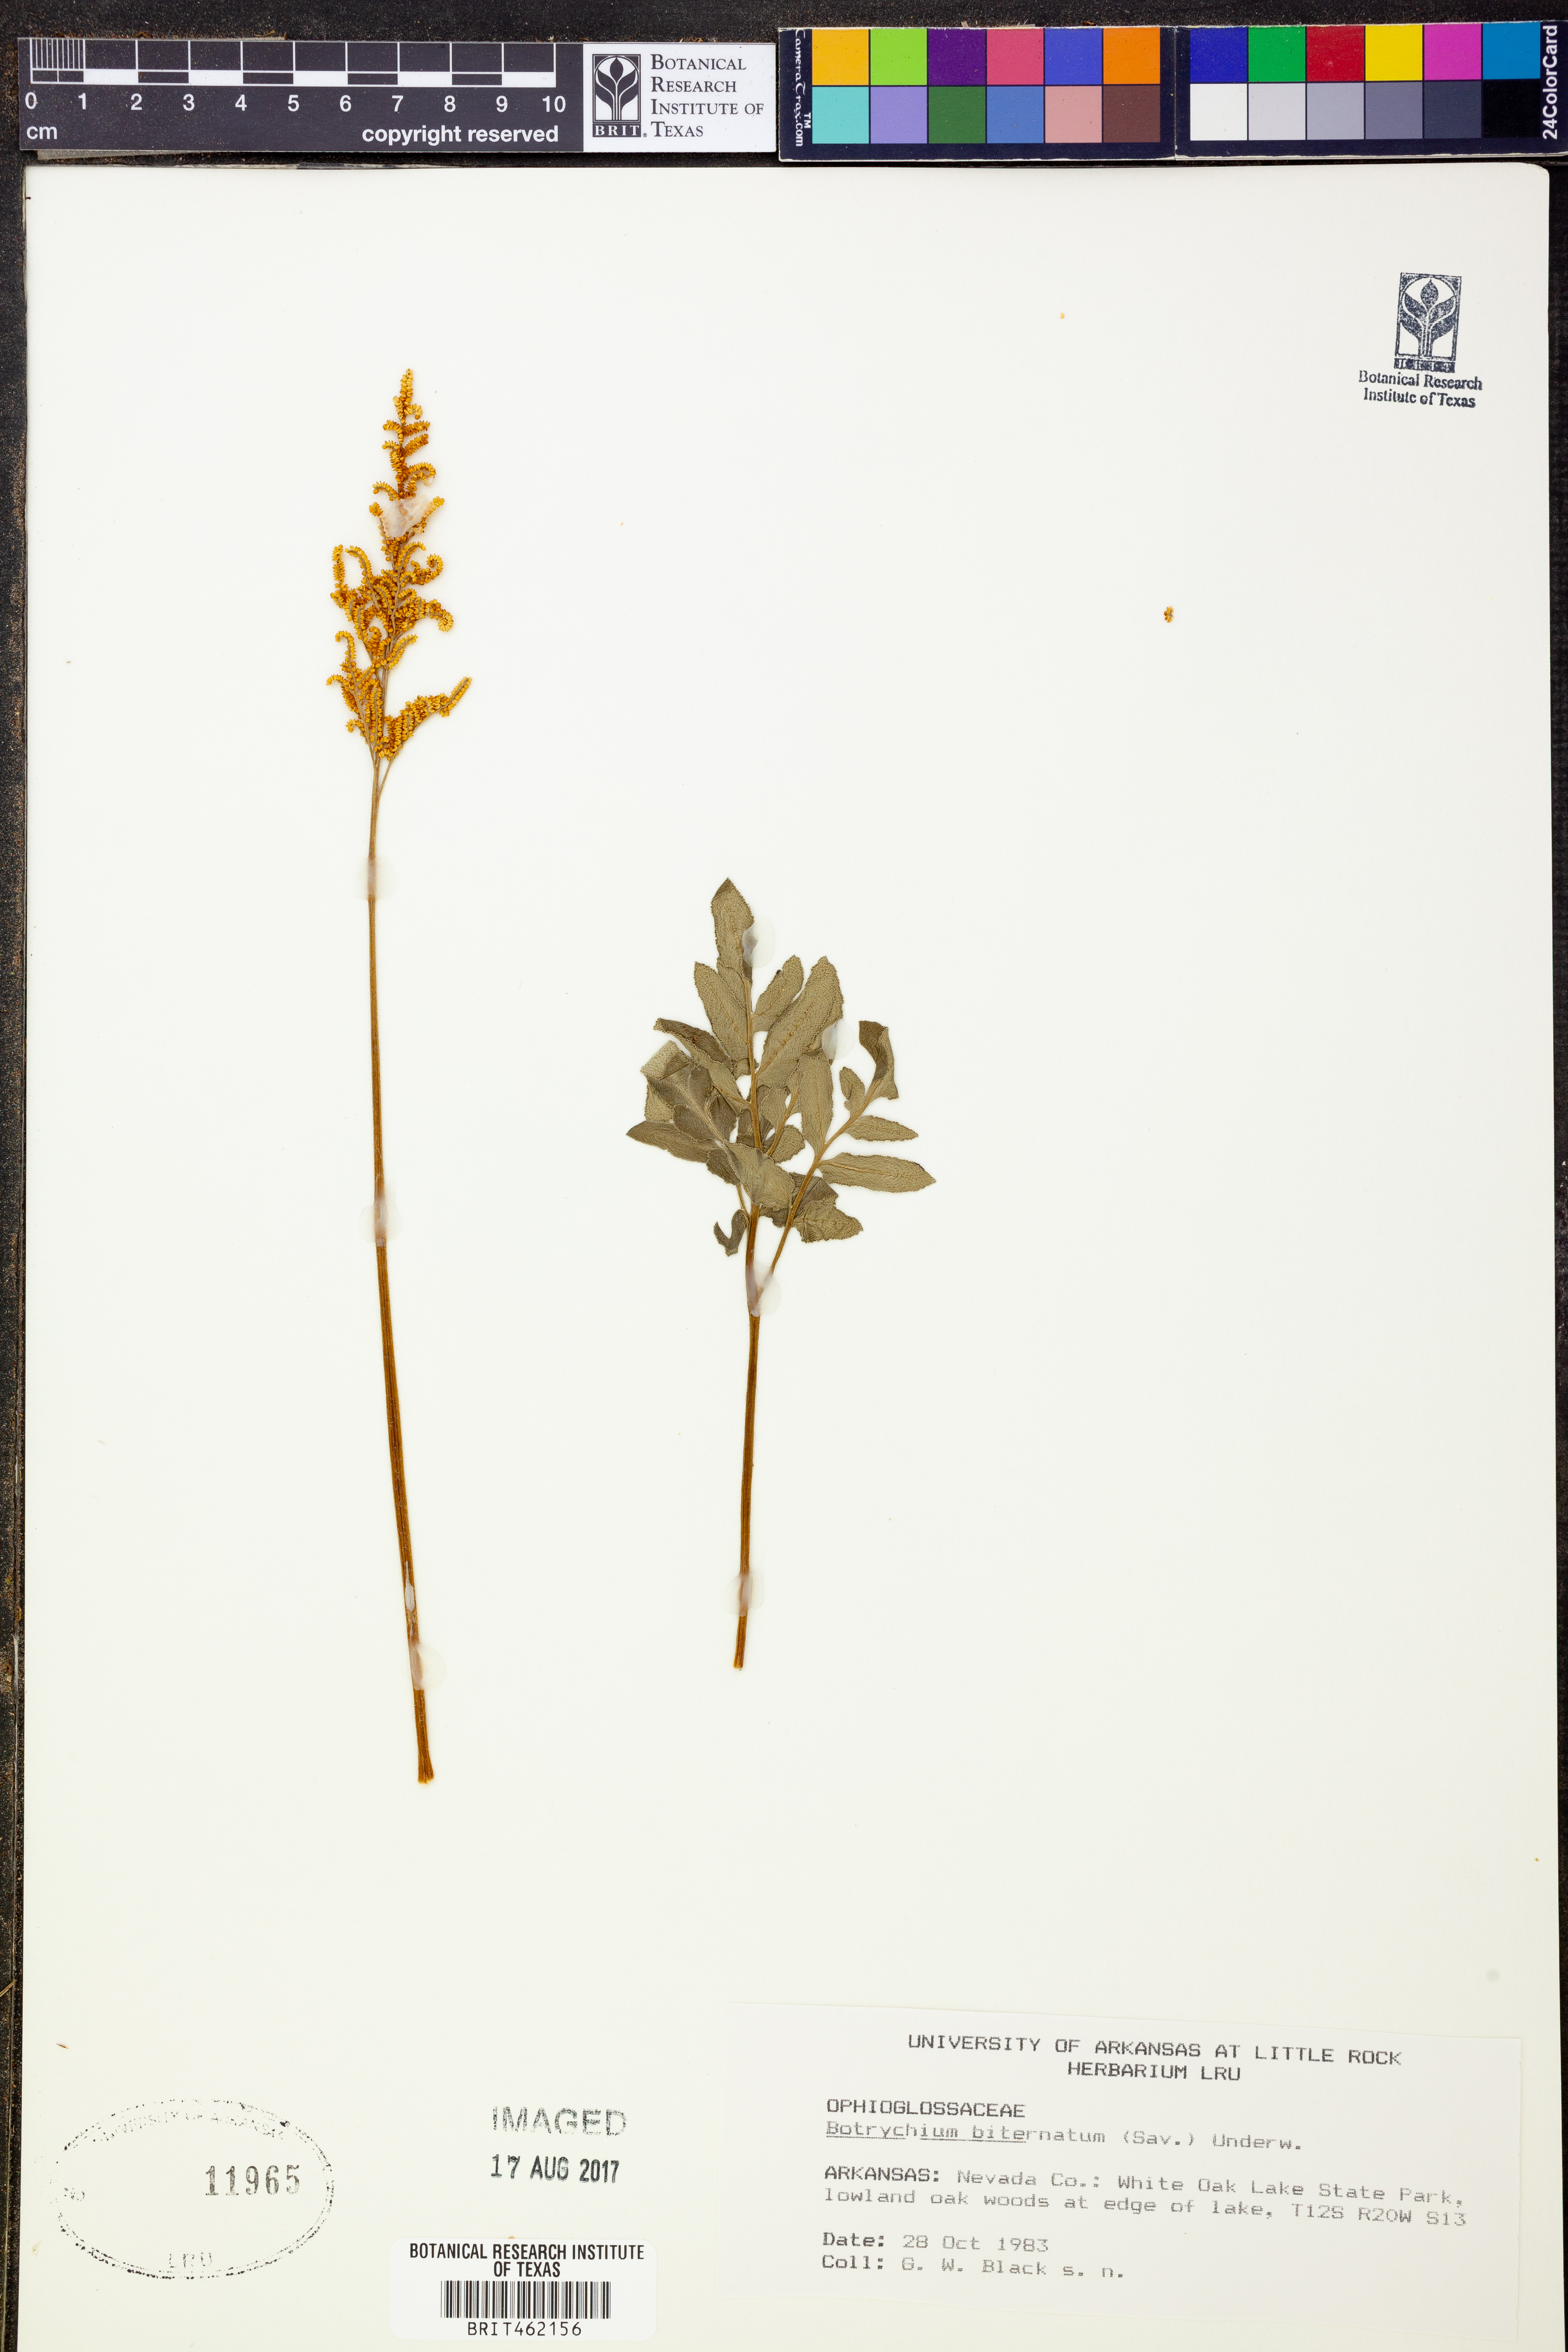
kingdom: Plantae
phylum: Tracheophyta
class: Polypodiopsida
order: Ophioglossales
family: Ophioglossaceae
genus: Sceptridium
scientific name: Sceptridium biternatum
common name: Sparse-lobed grapefern
